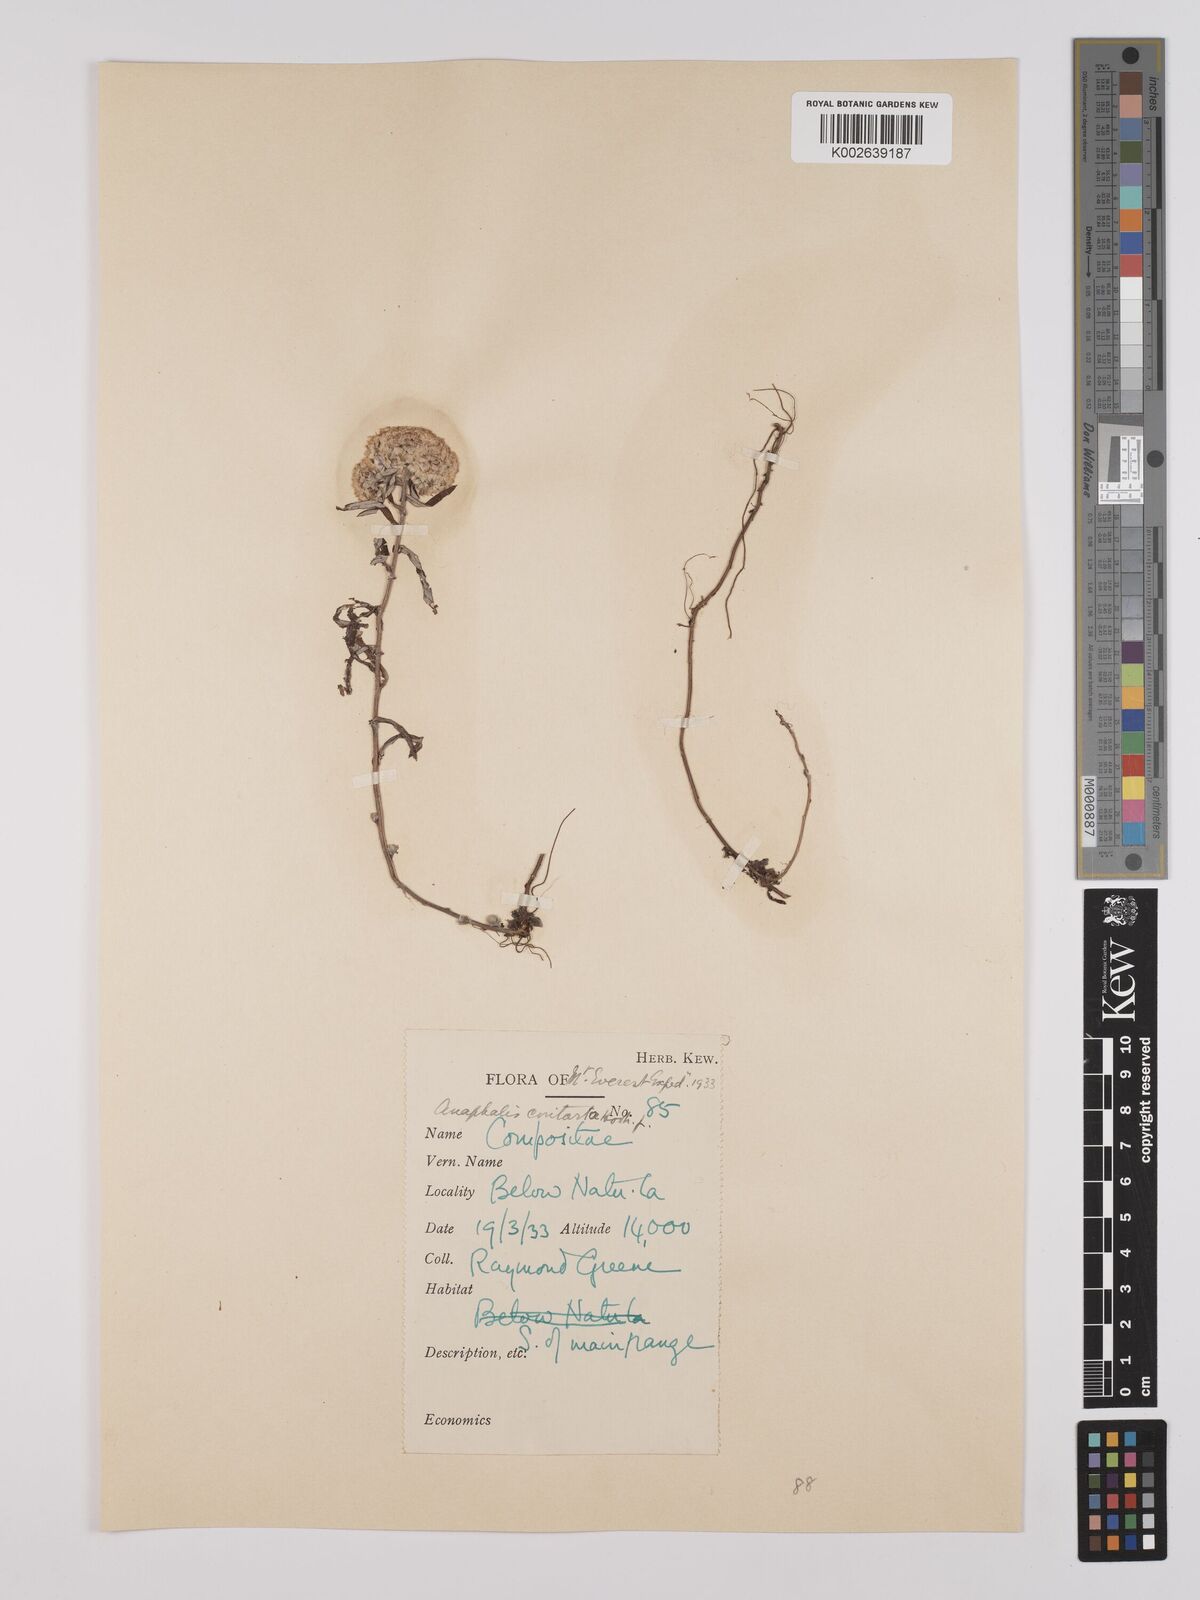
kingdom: Plantae
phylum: Tracheophyta
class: Magnoliopsida
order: Asterales
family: Asteraceae
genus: Anaphalis
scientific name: Anaphalis contorta
